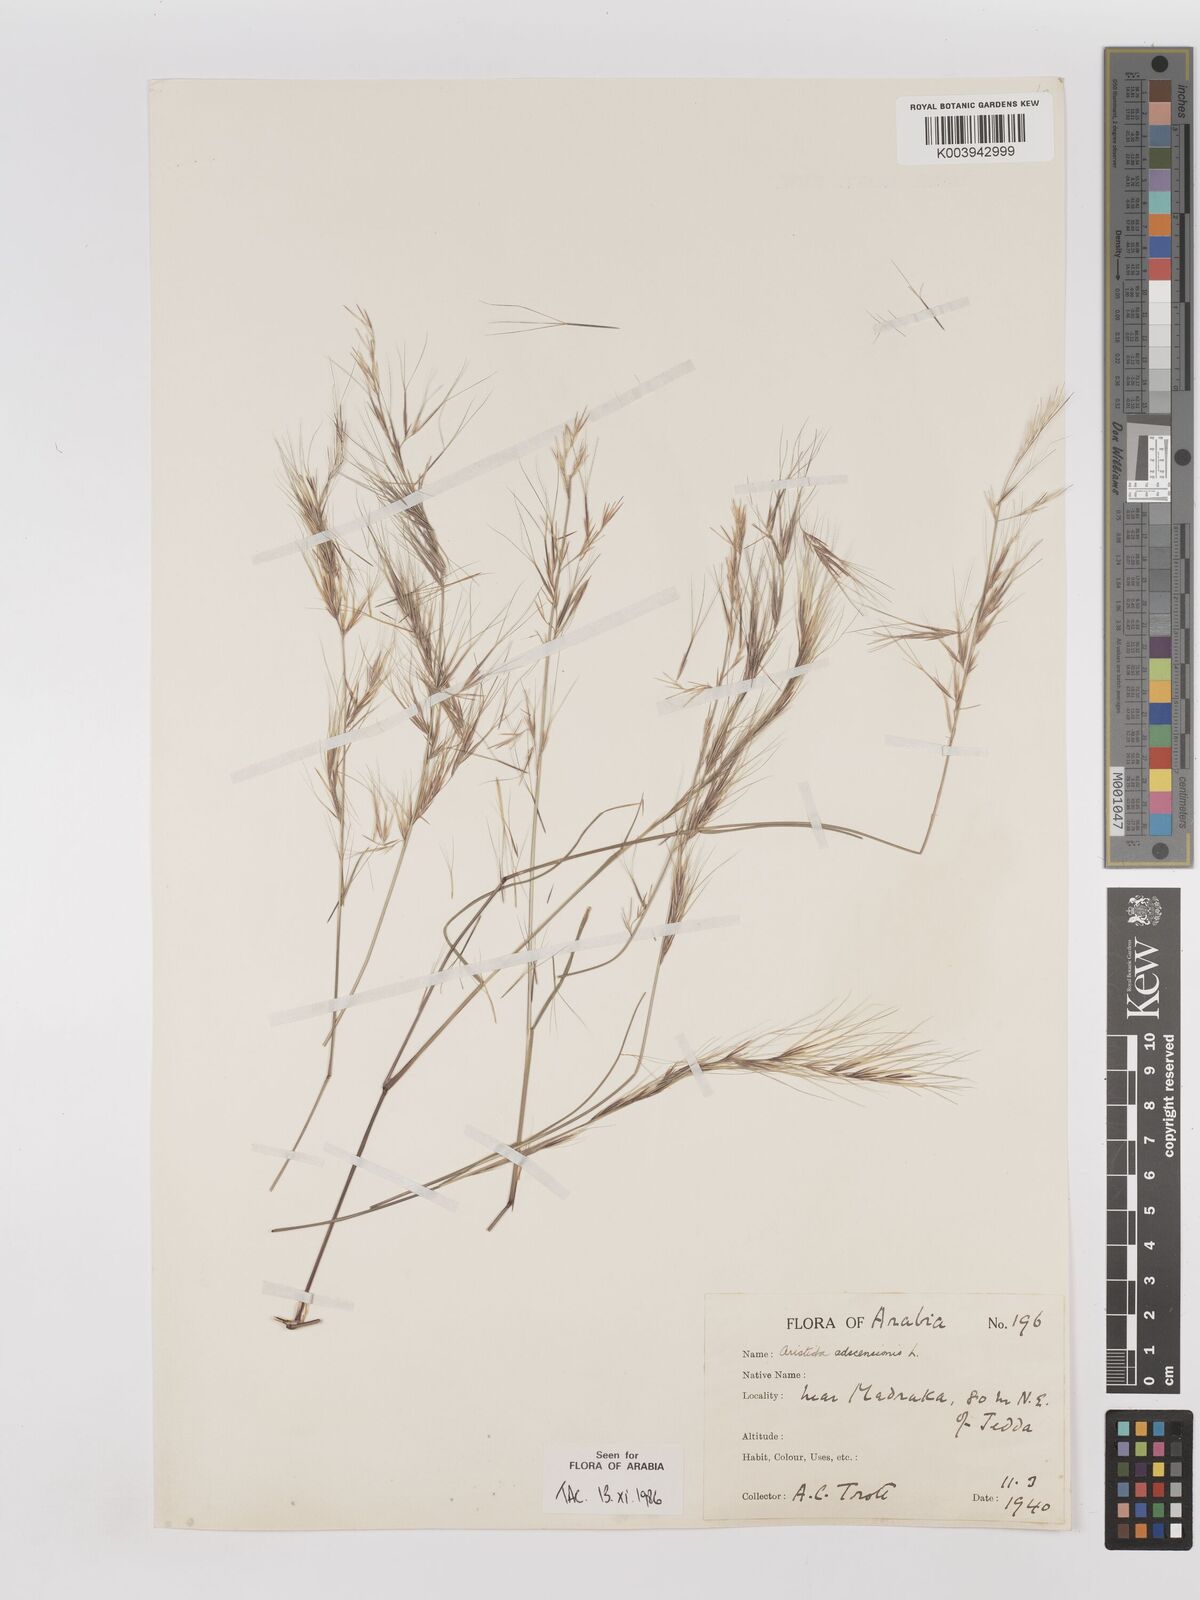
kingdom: Plantae
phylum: Tracheophyta
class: Liliopsida
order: Poales
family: Poaceae
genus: Aristida
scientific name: Aristida adscensionis
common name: Sixweeks threeawn
